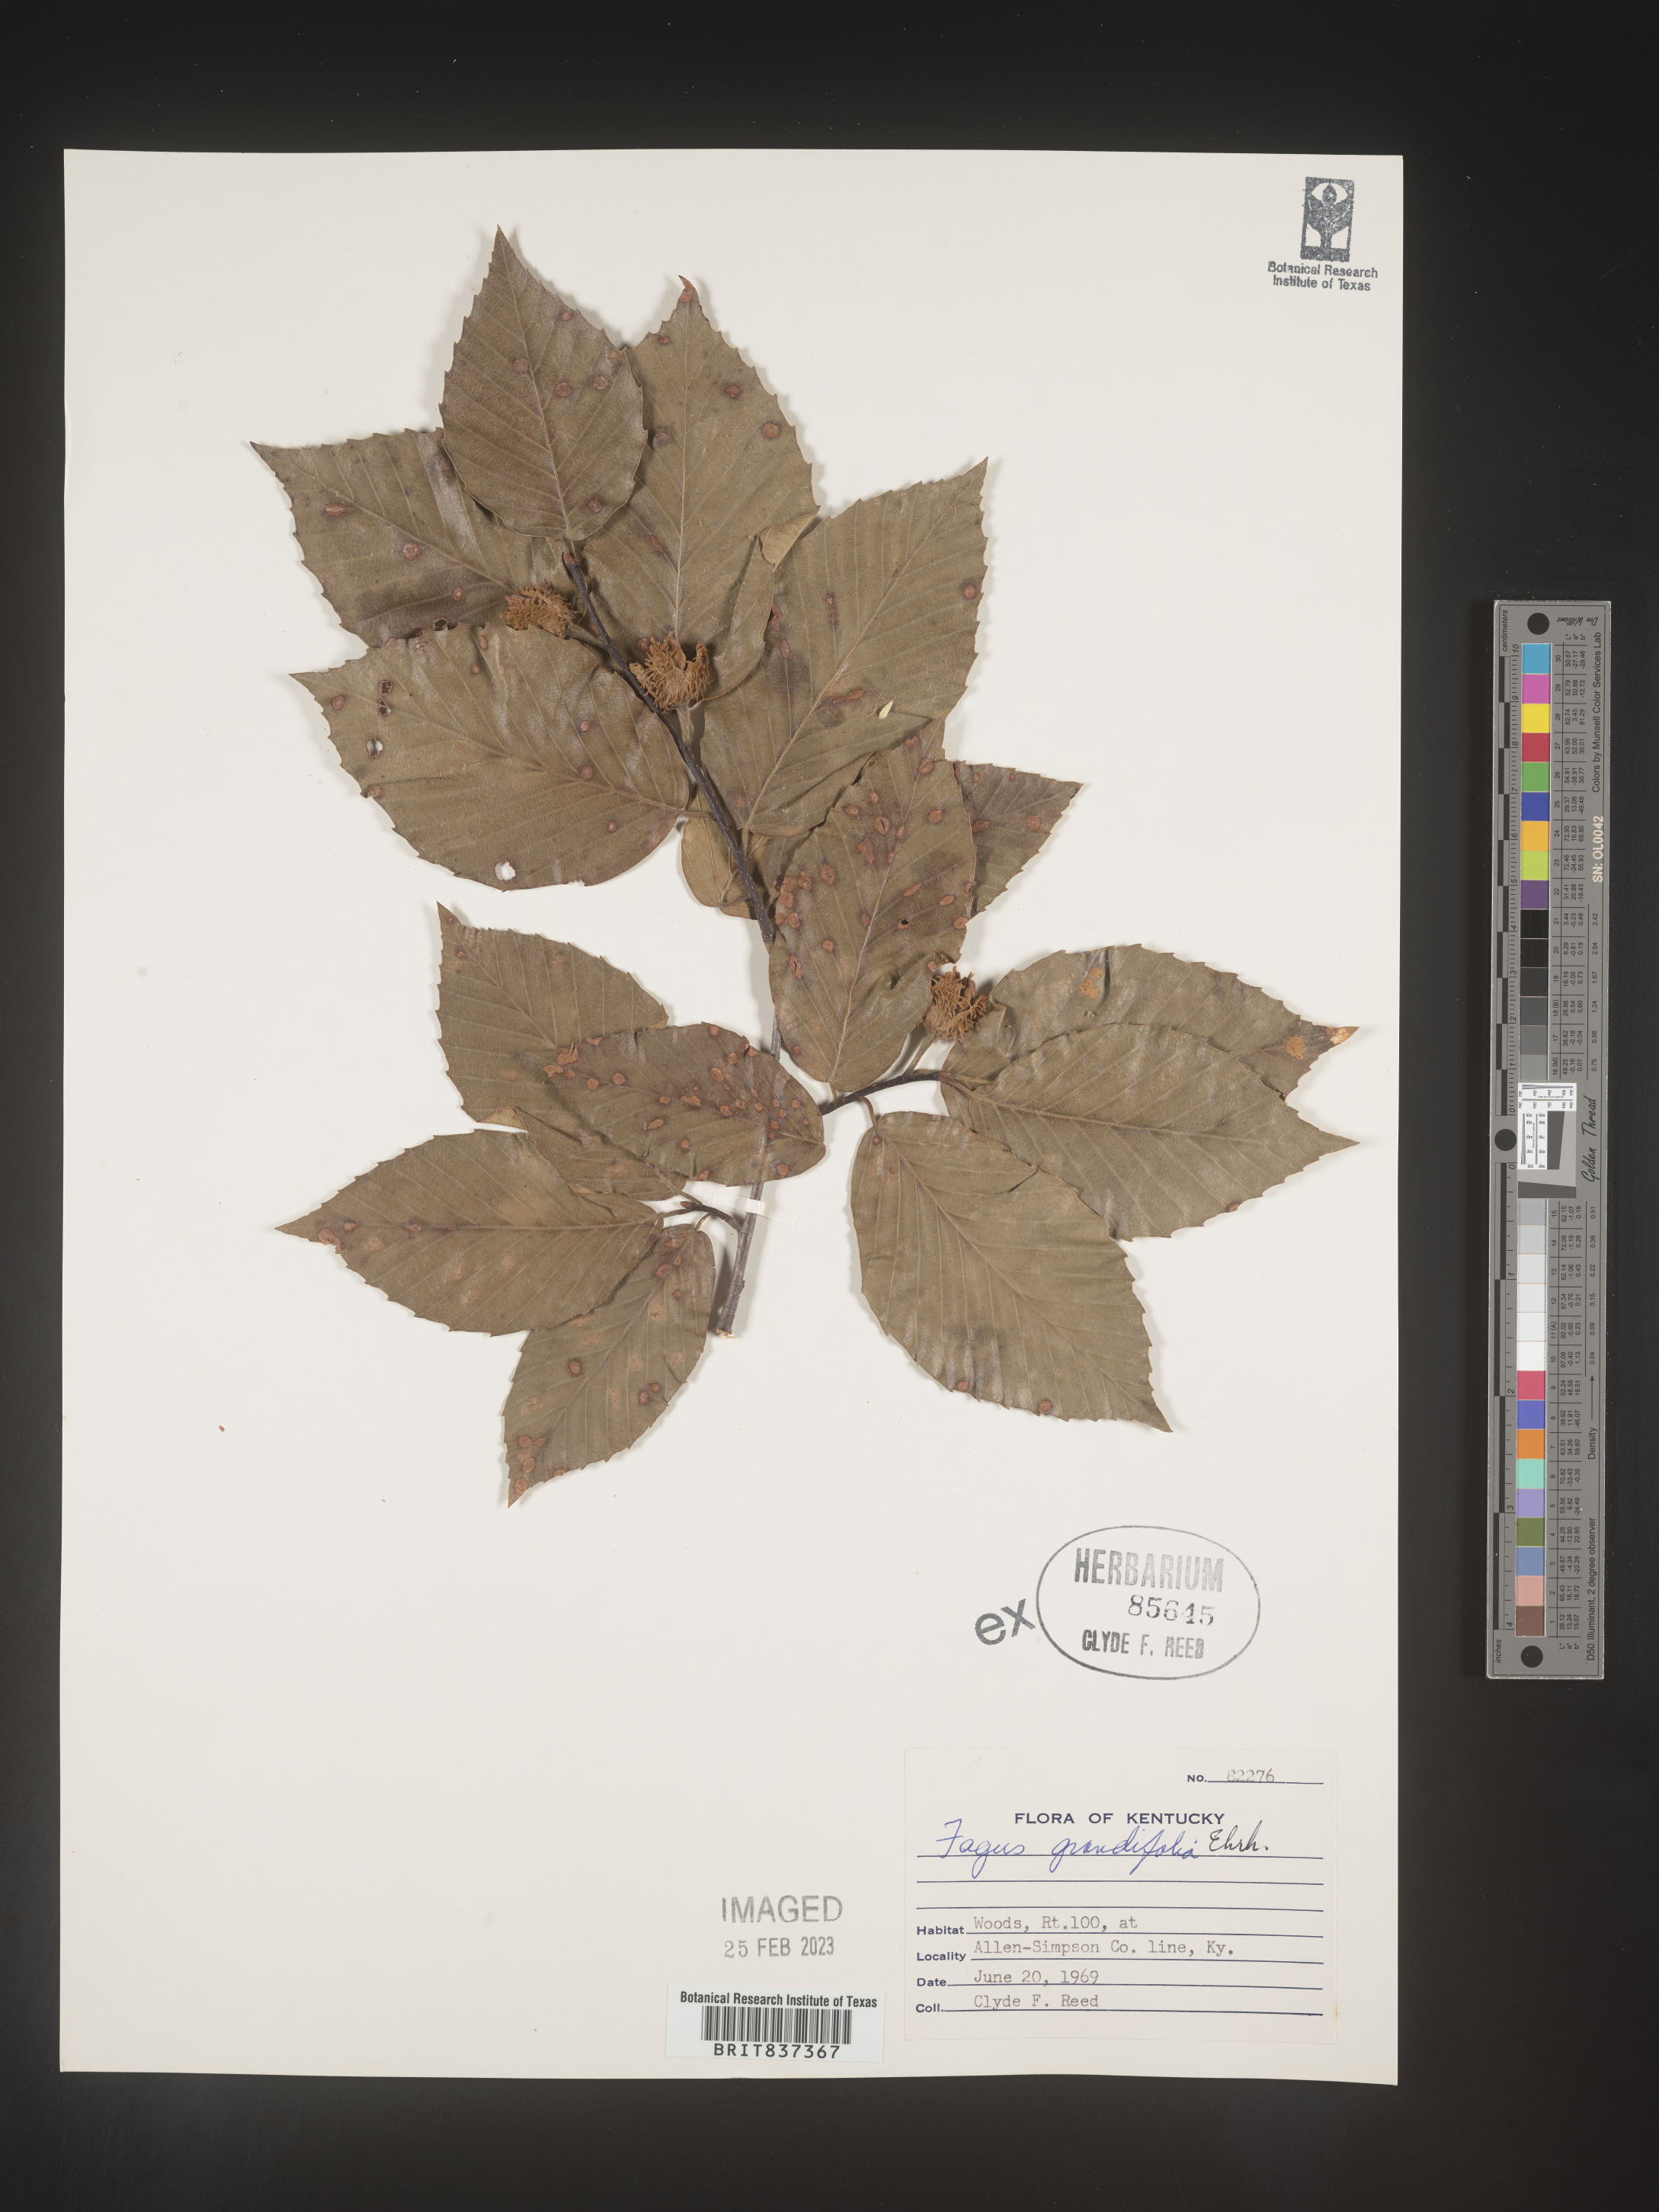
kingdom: Plantae
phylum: Tracheophyta
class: Magnoliopsida
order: Fagales
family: Fagaceae
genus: Fagus
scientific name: Fagus grandifolia
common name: American beech
